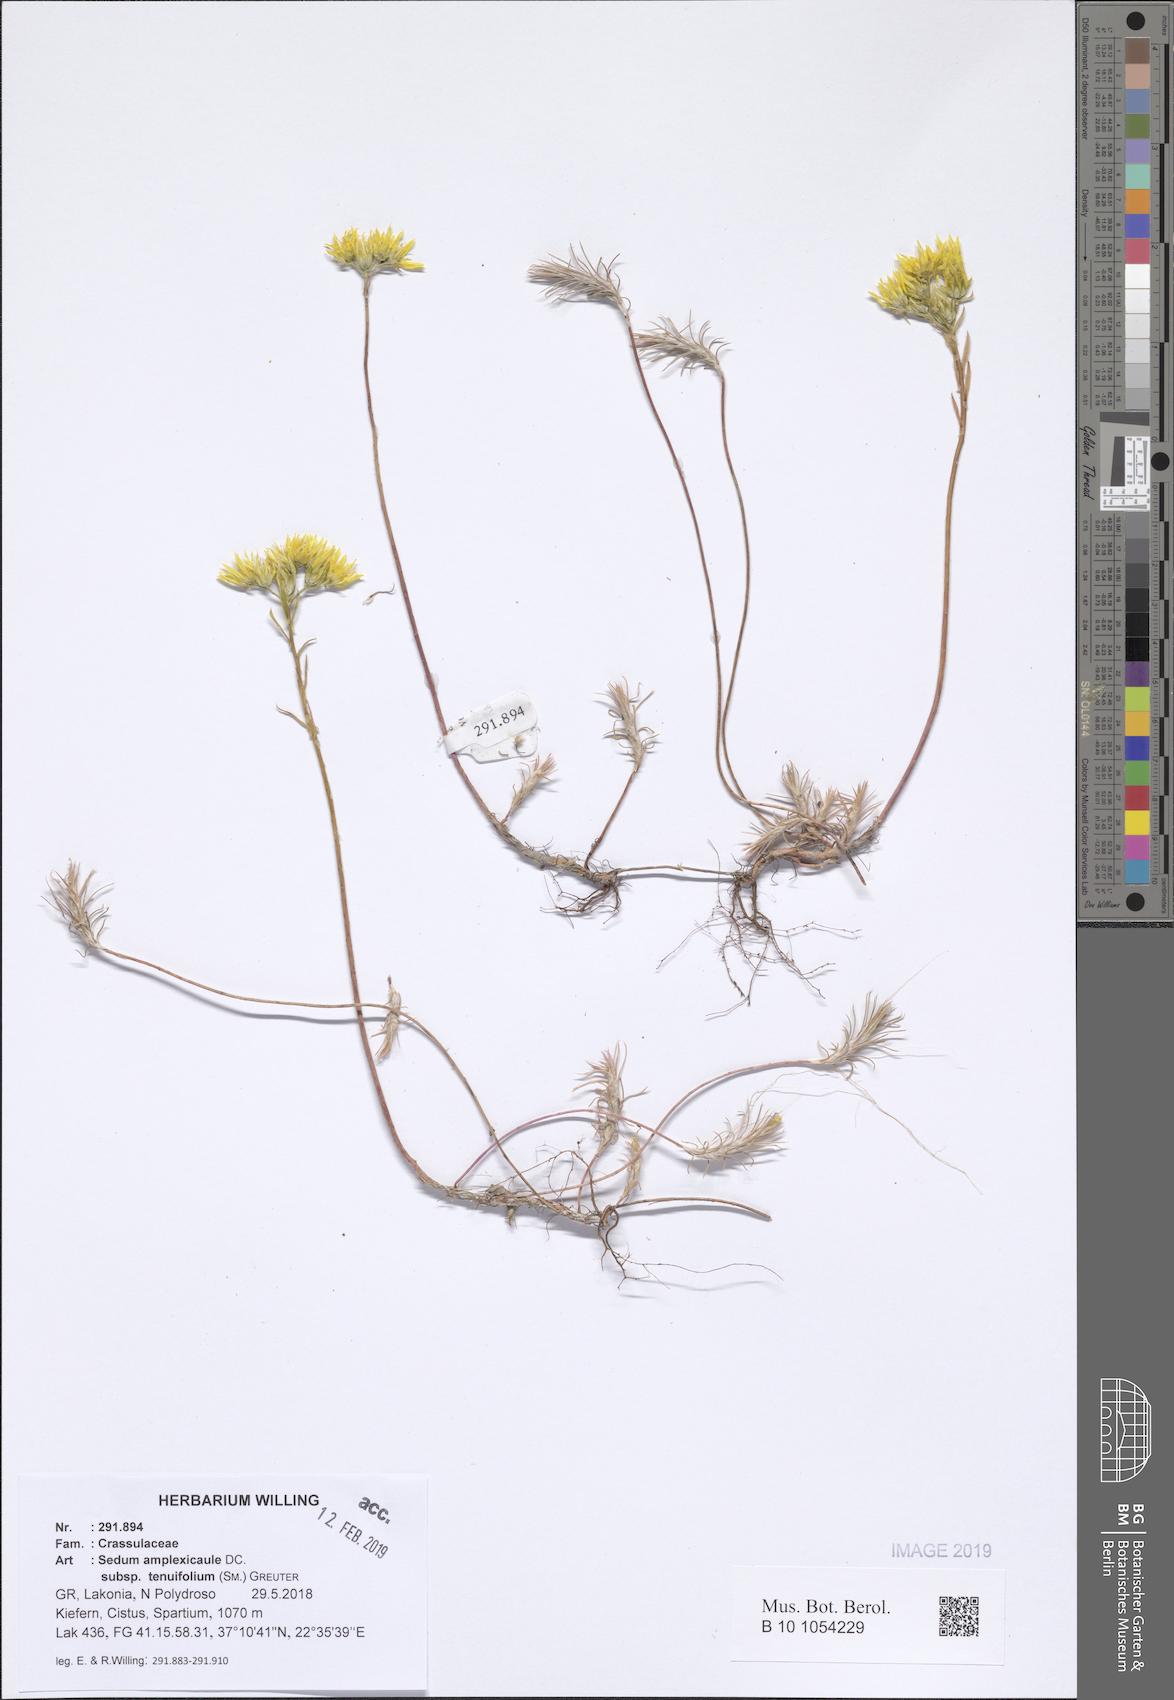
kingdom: Plantae
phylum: Tracheophyta
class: Magnoliopsida
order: Saxifragales
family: Crassulaceae
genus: Petrosedum
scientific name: Petrosedum tenuifolium
